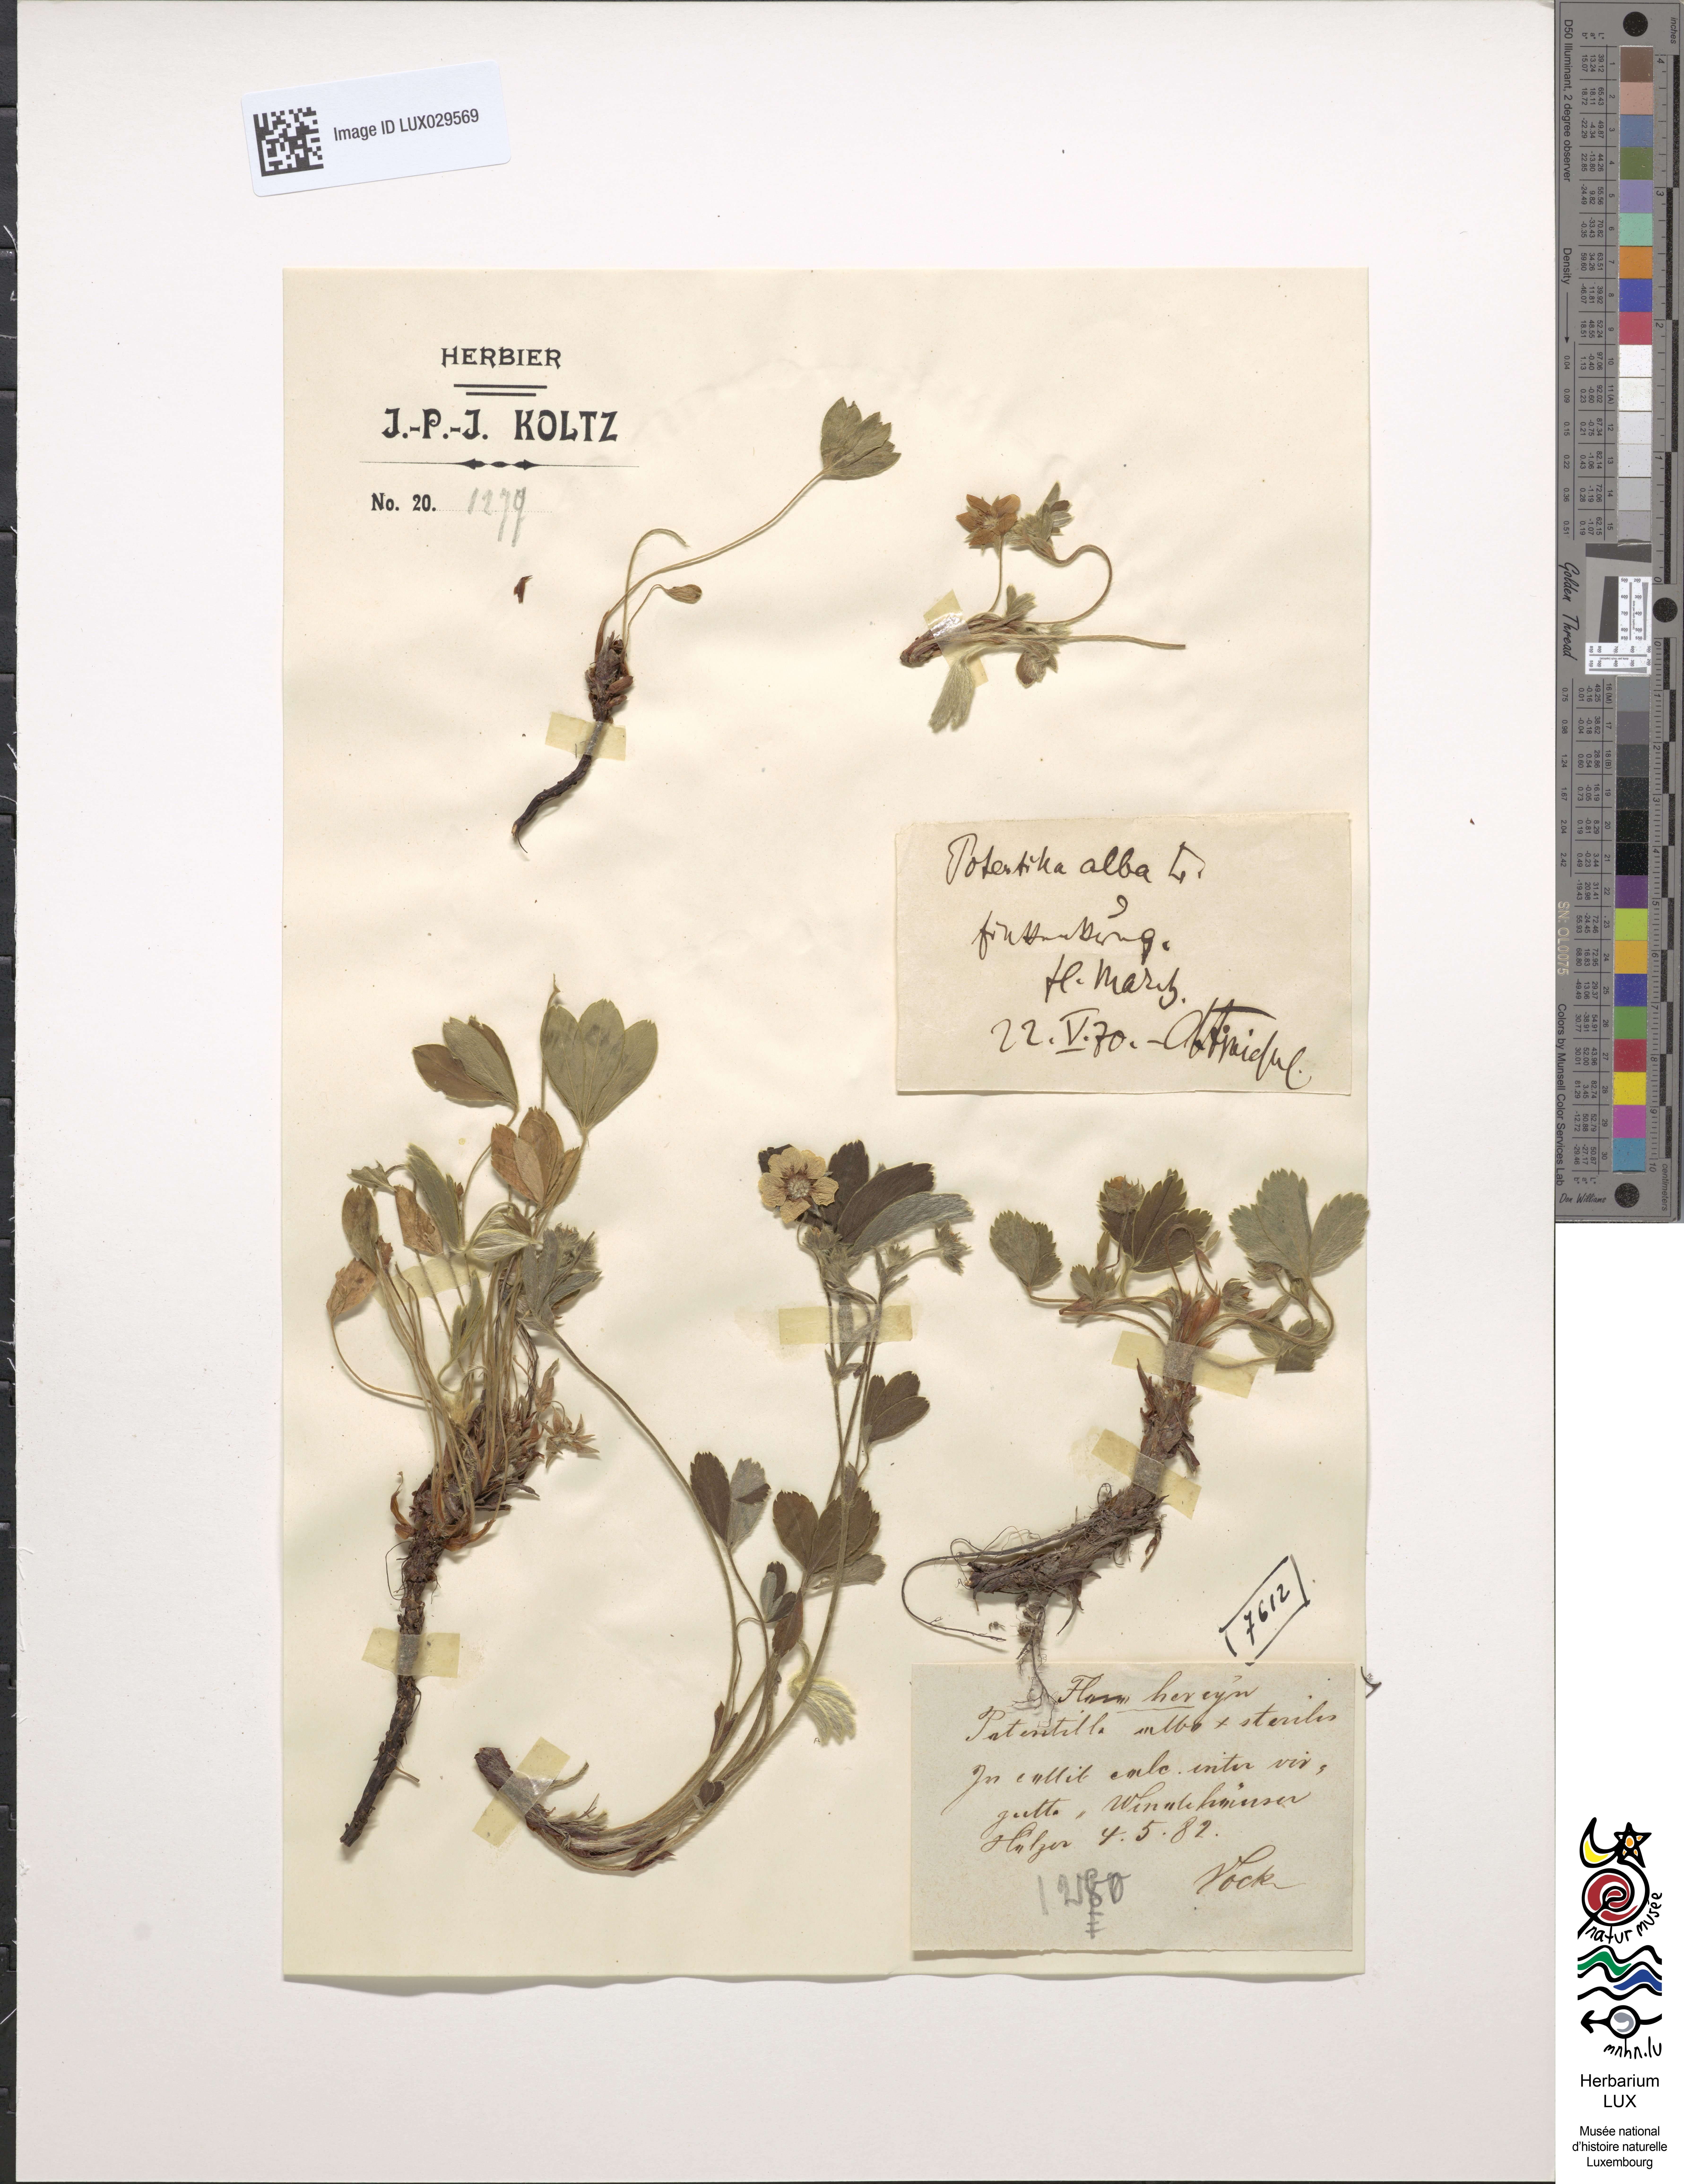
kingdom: Plantae
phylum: Tracheophyta
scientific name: Tracheophyta
